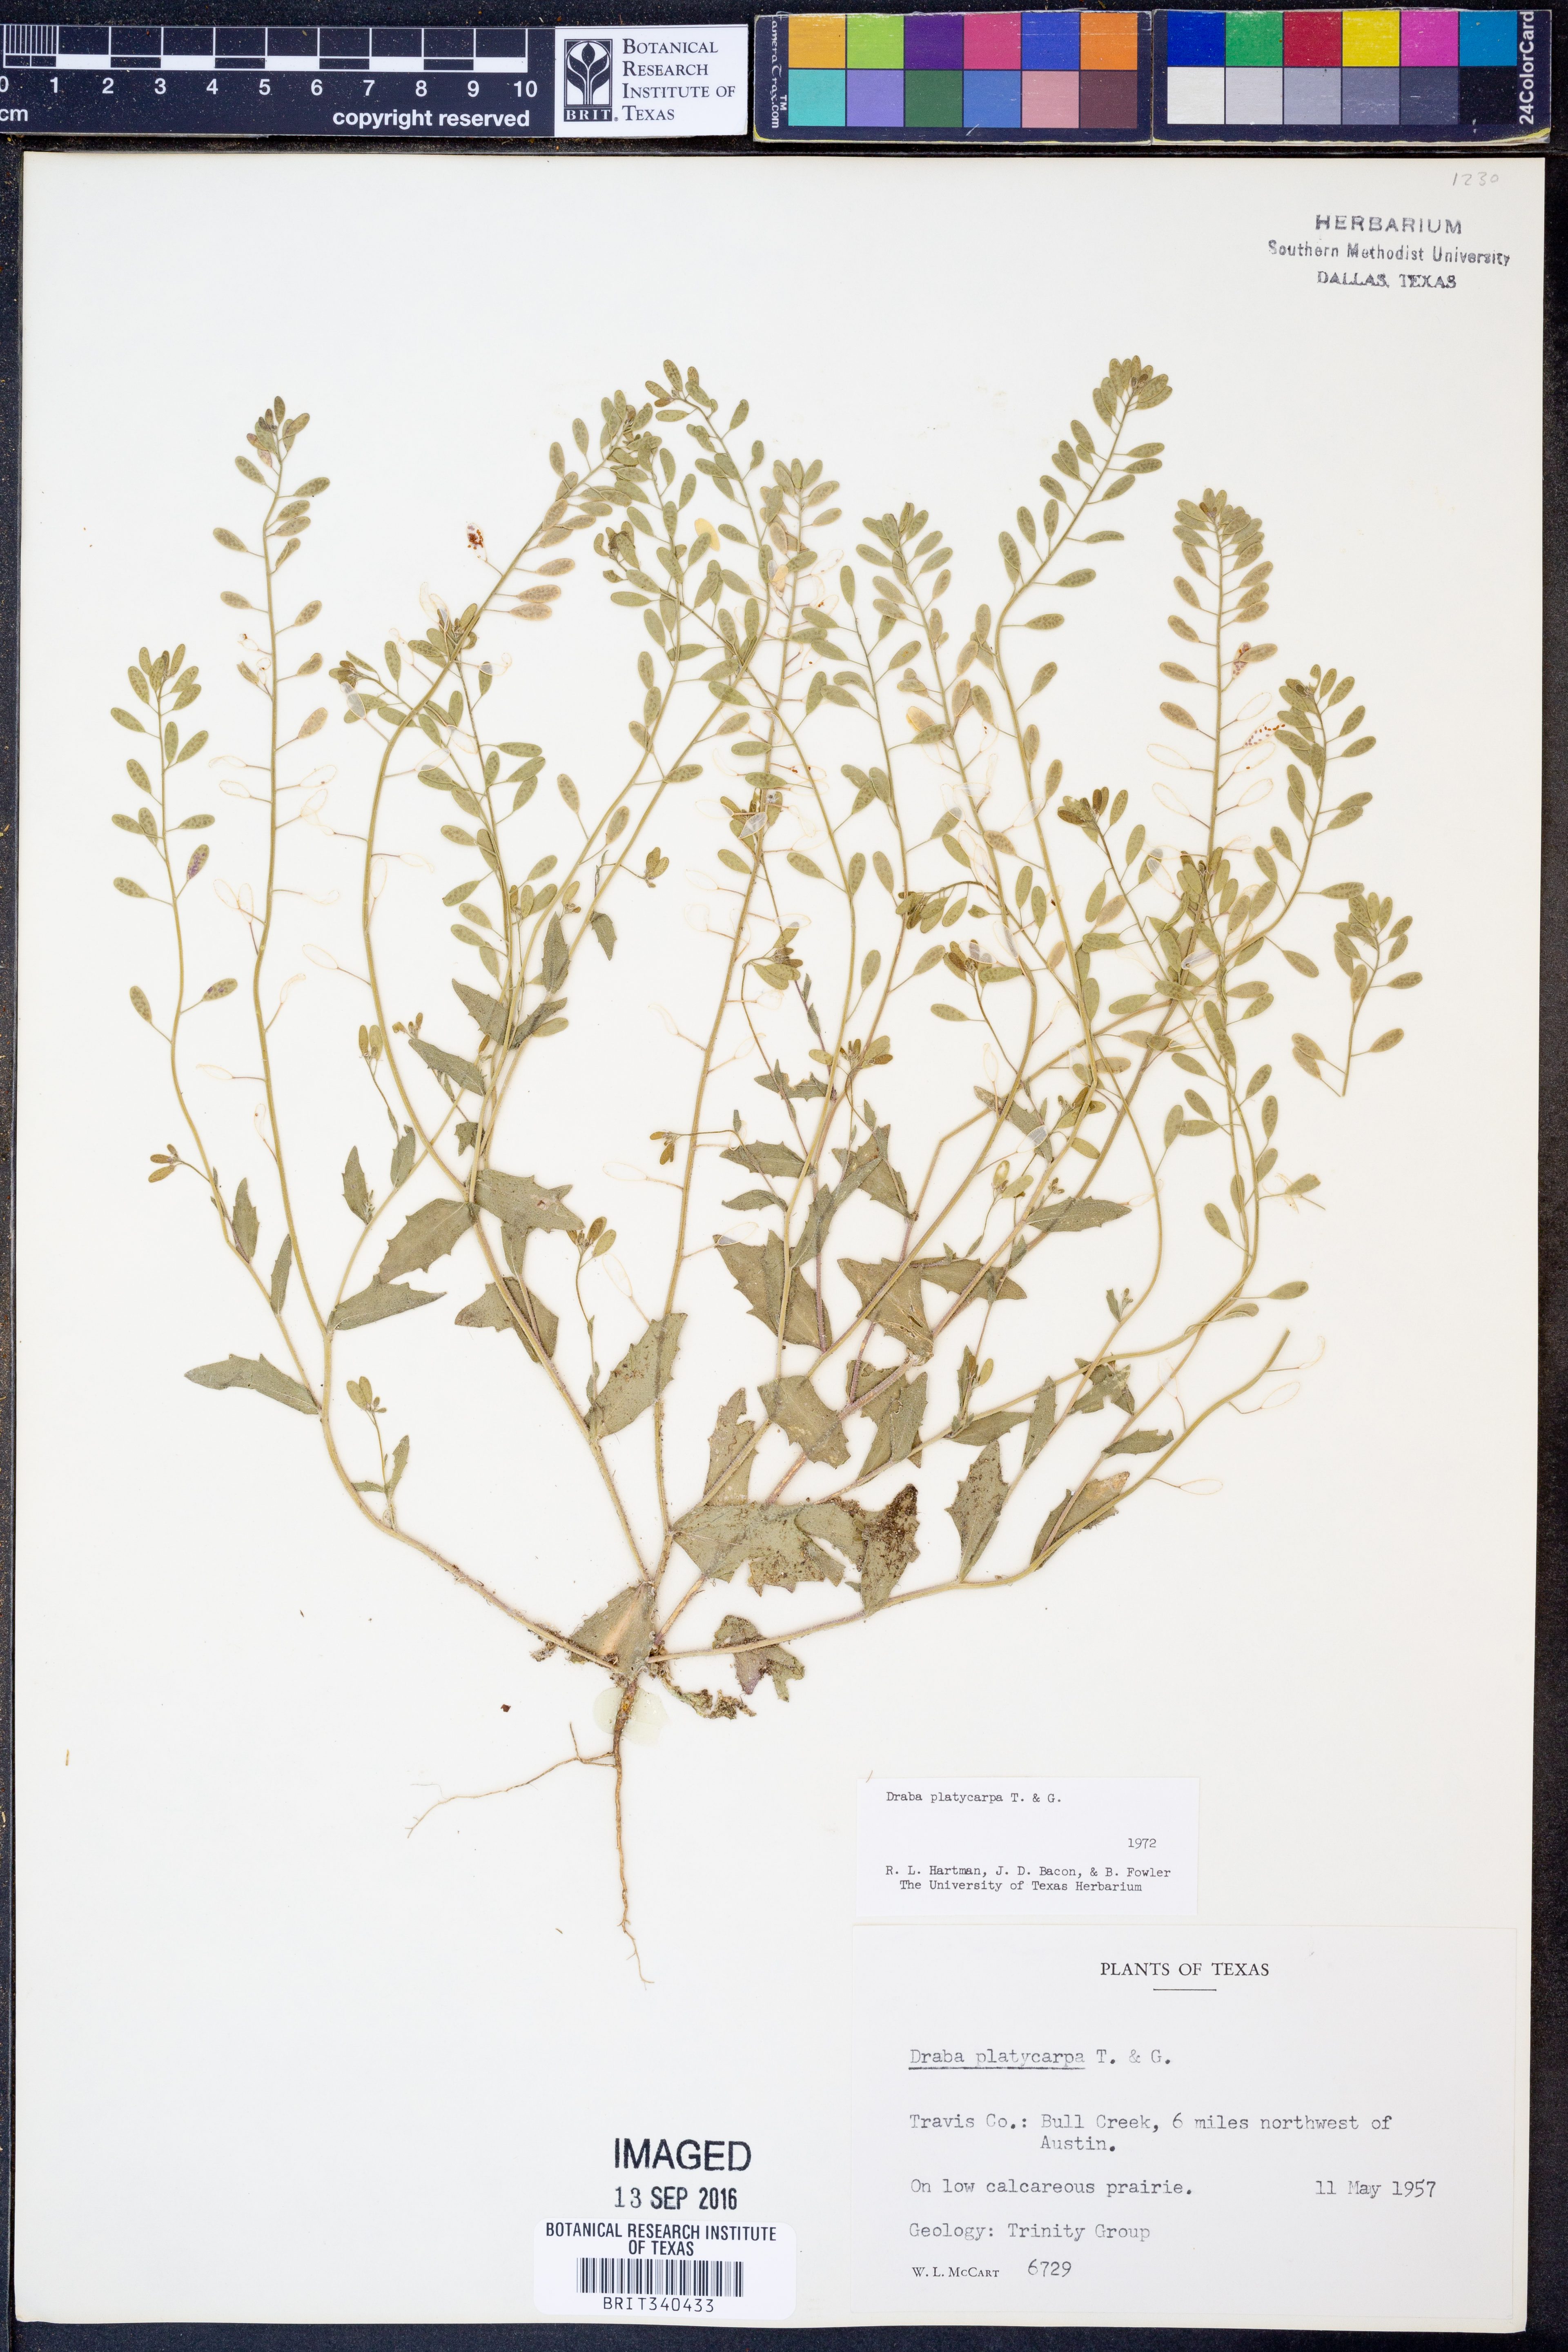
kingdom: Plantae
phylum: Tracheophyta
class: Magnoliopsida
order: Brassicales
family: Brassicaceae
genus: Tomostima
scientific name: Tomostima platycarpa
